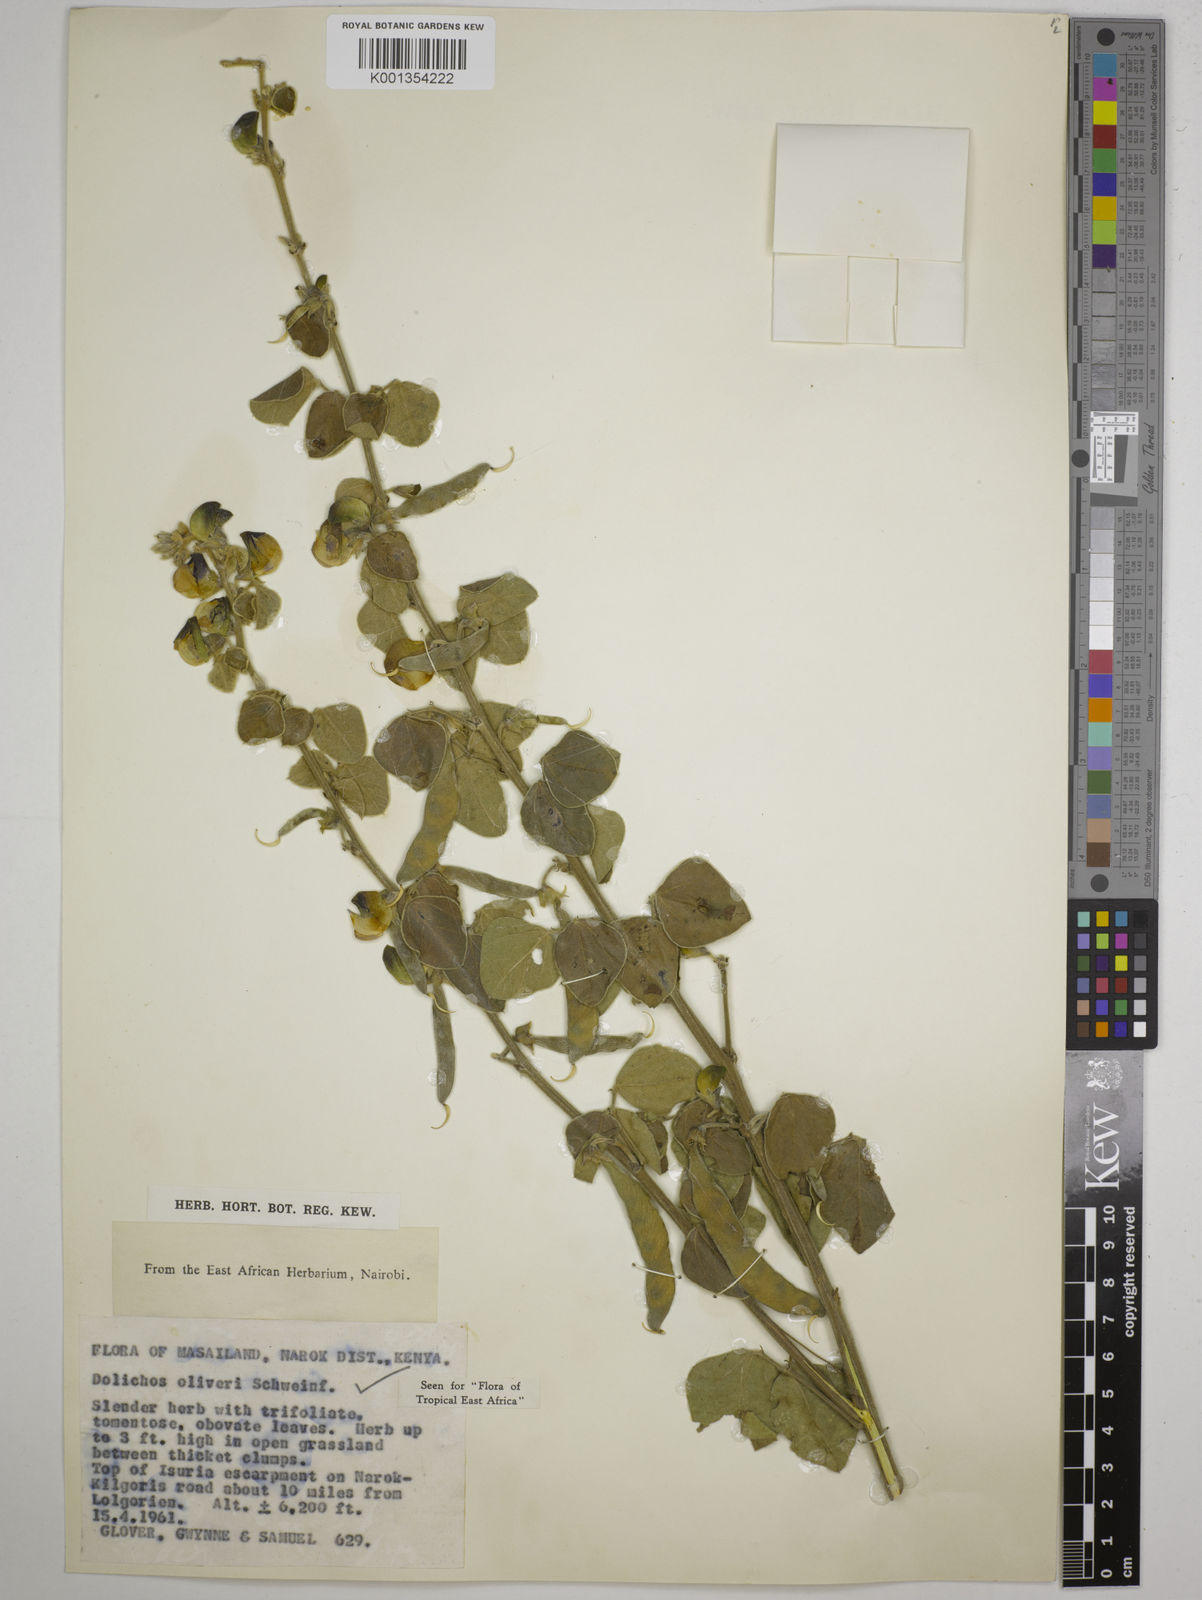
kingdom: Plantae
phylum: Tracheophyta
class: Magnoliopsida
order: Fabales
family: Fabaceae
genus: Dolichos
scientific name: Dolichos oliveri
